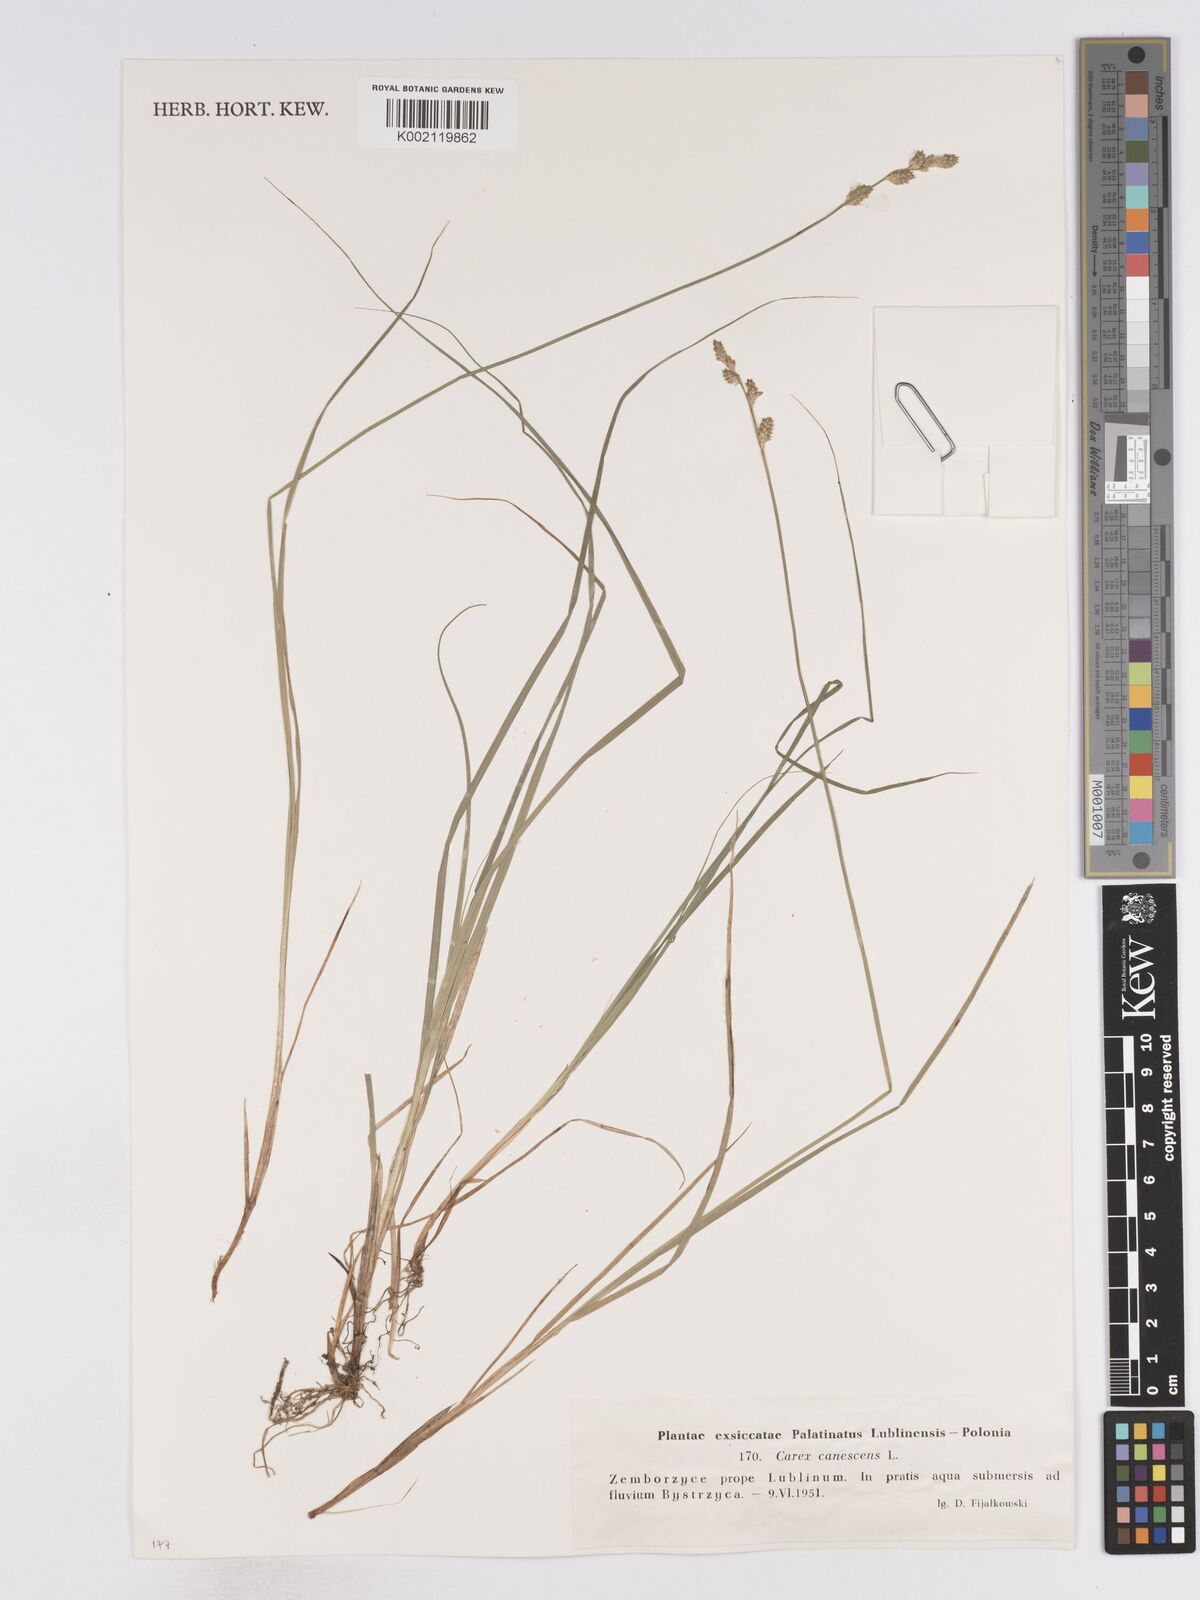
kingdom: Plantae
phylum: Tracheophyta
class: Liliopsida
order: Poales
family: Cyperaceae
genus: Carex
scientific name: Carex curta
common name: White sedge
